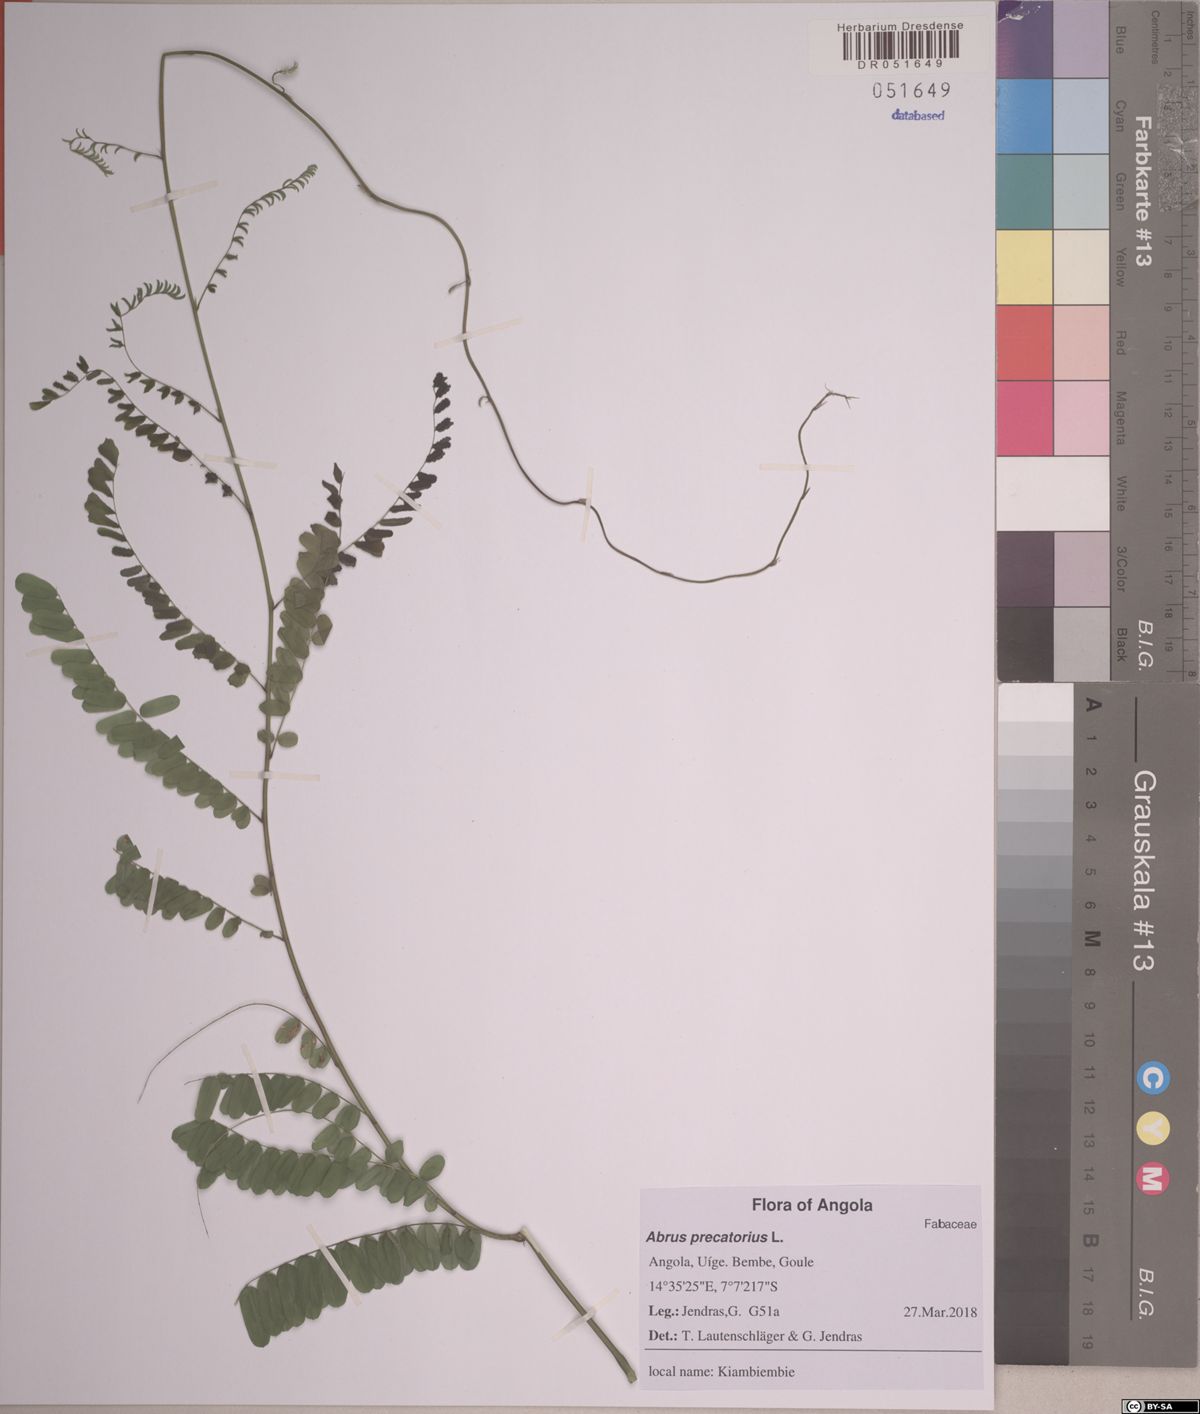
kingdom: Plantae
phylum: Tracheophyta
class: Magnoliopsida
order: Fabales
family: Fabaceae
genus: Abrus
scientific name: Abrus precatorius
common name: Rosarypea
